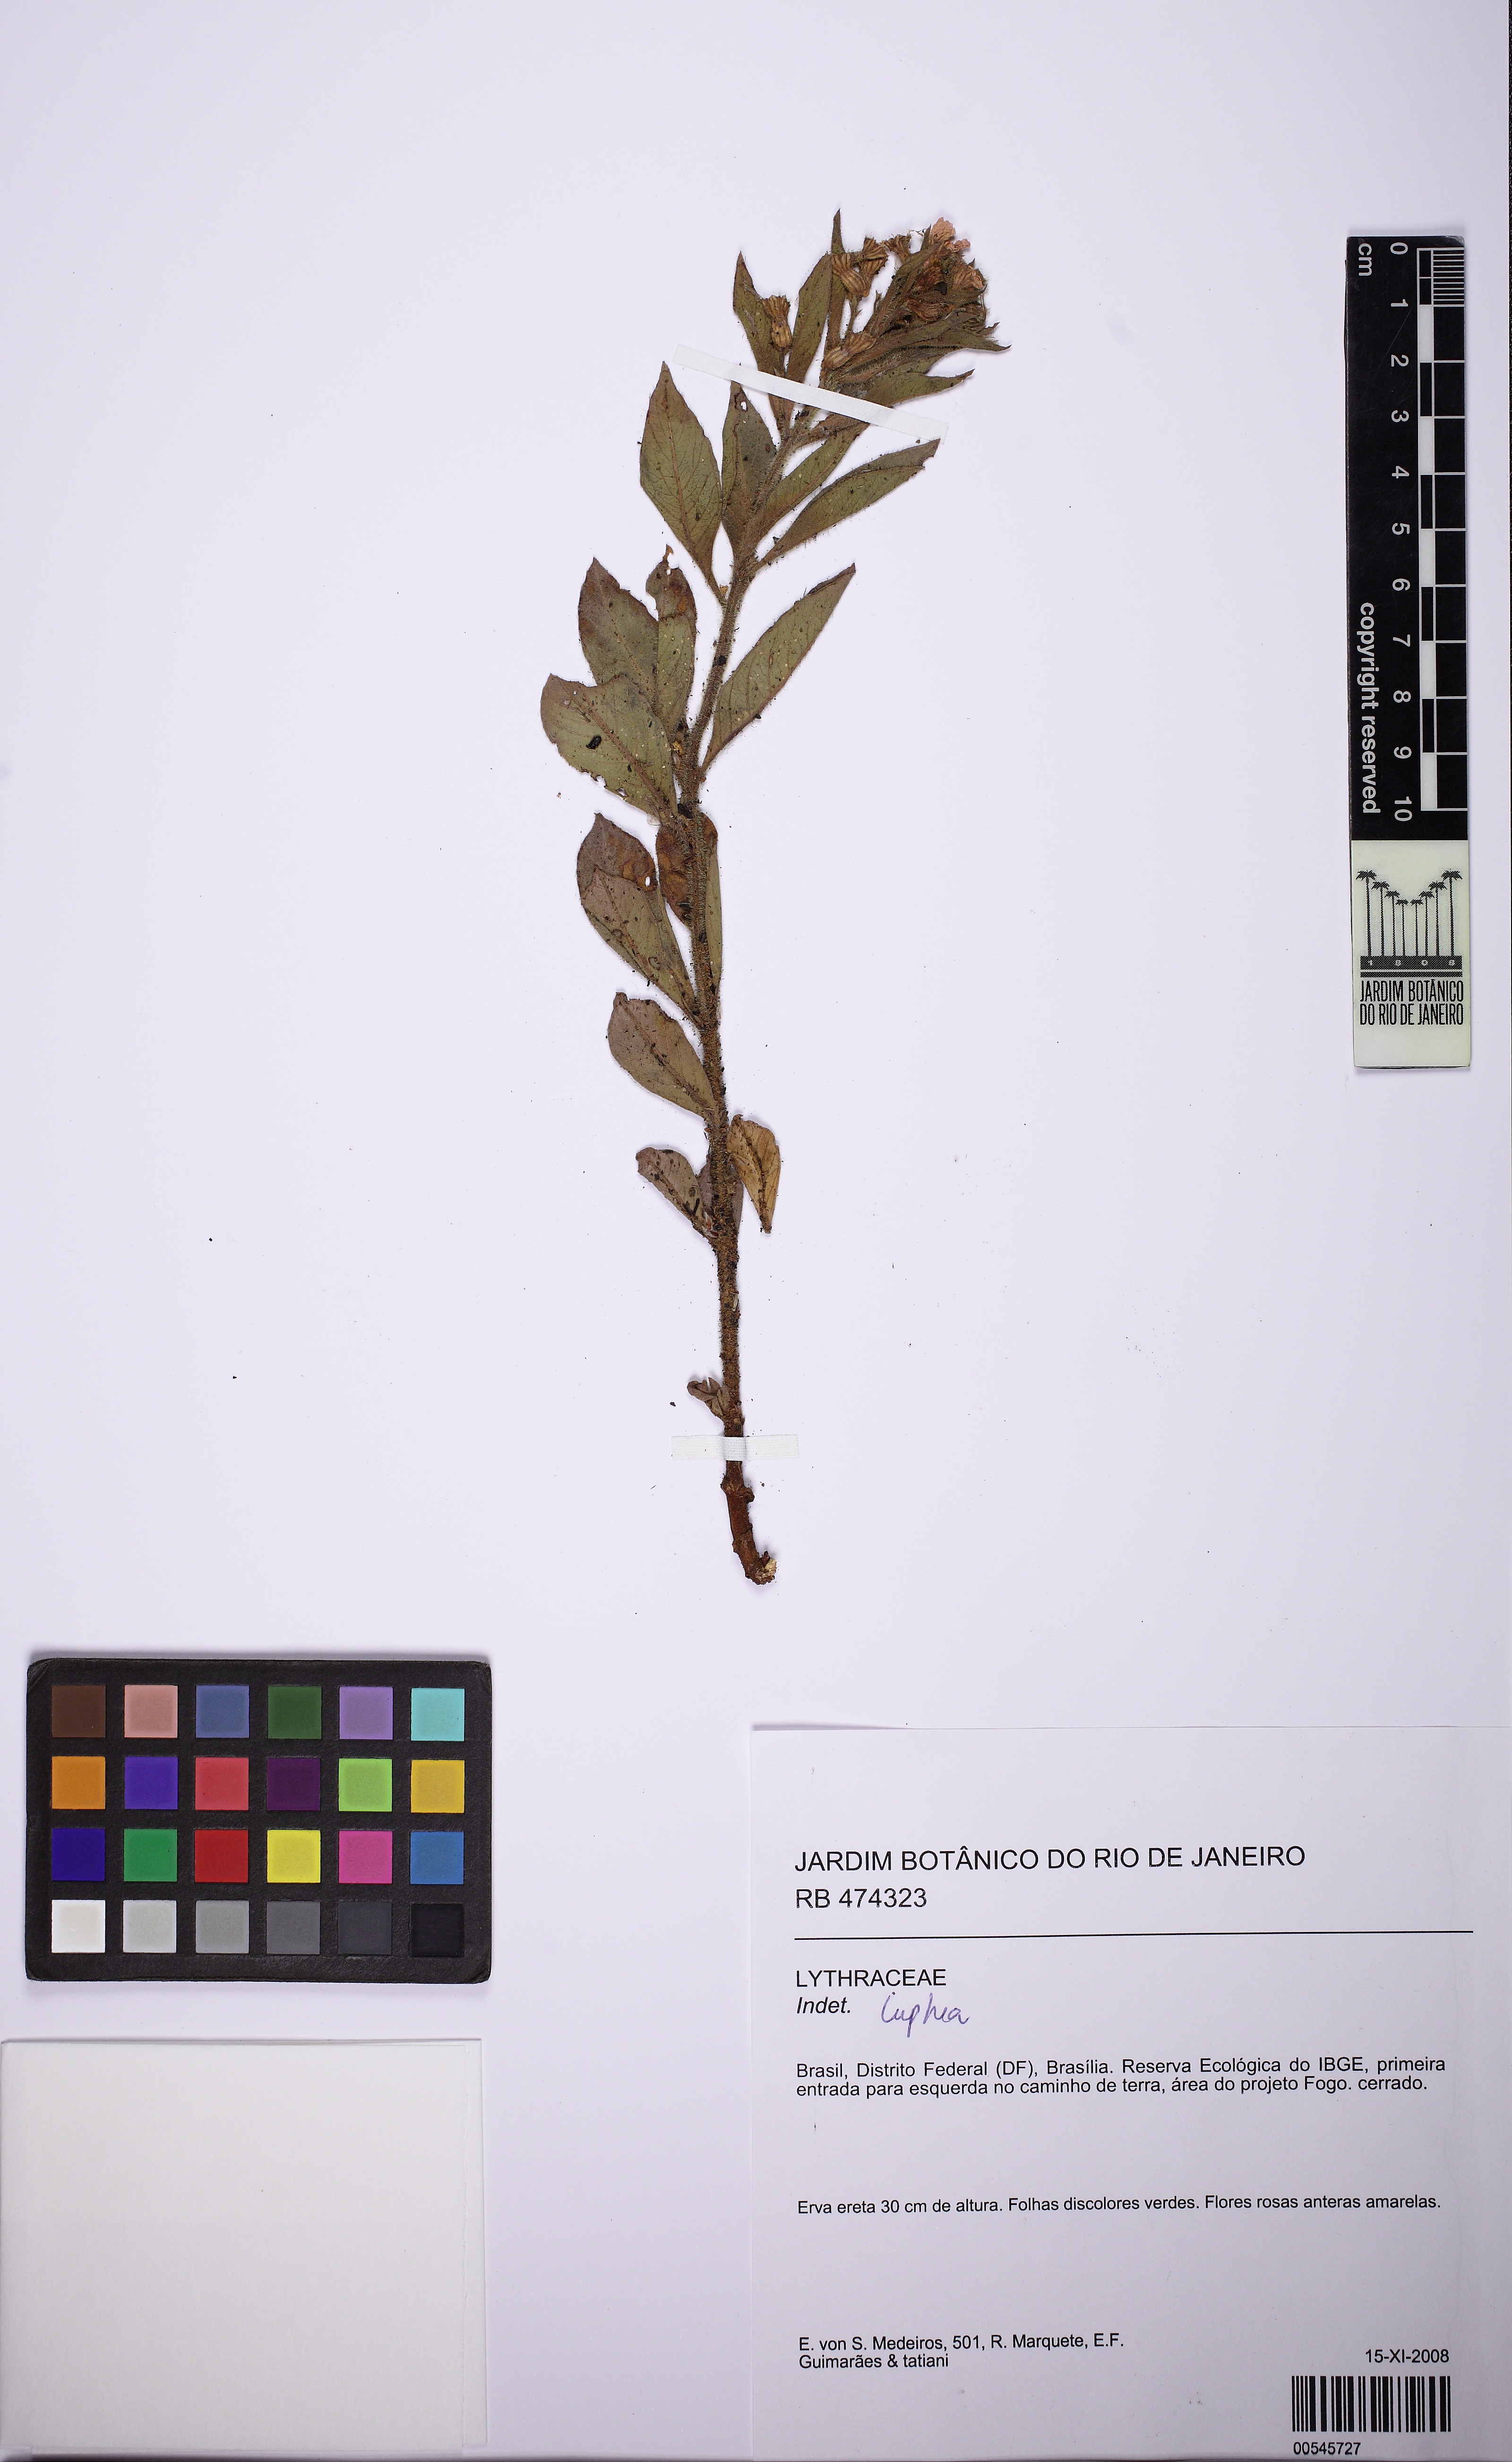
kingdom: Plantae
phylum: Tracheophyta
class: Magnoliopsida
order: Myrtales
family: Lythraceae
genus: Cuphea
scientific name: Cuphea
